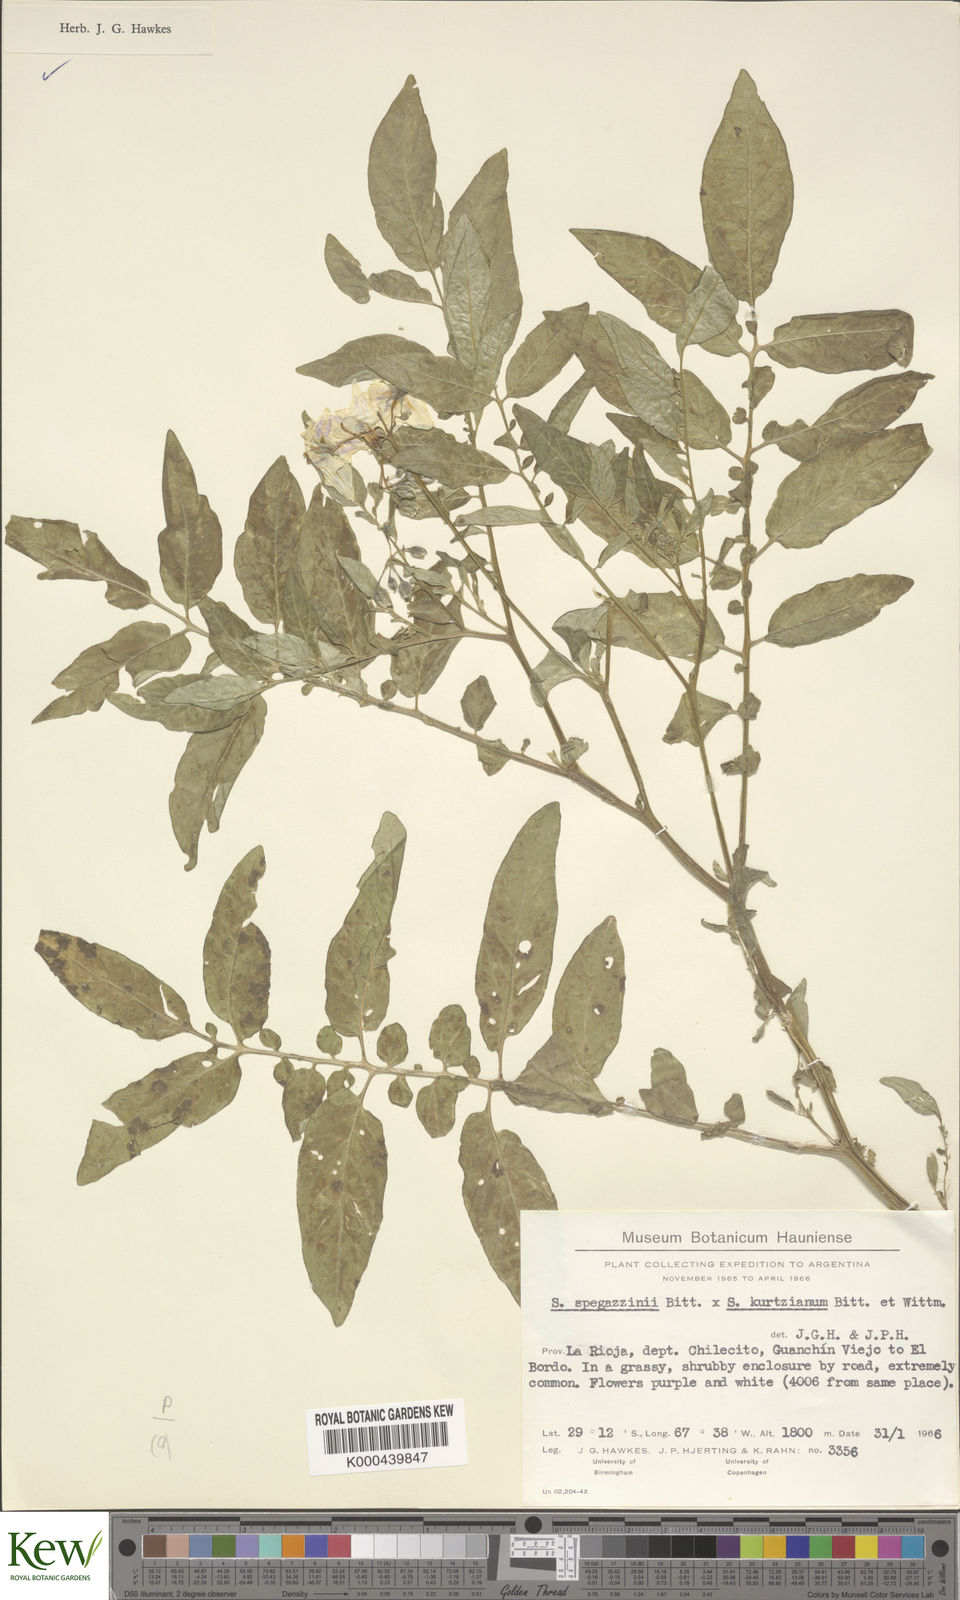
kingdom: Plantae
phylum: Tracheophyta
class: Magnoliopsida
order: Solanales
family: Solanaceae
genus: Solanum
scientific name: Solanum brevicaule
